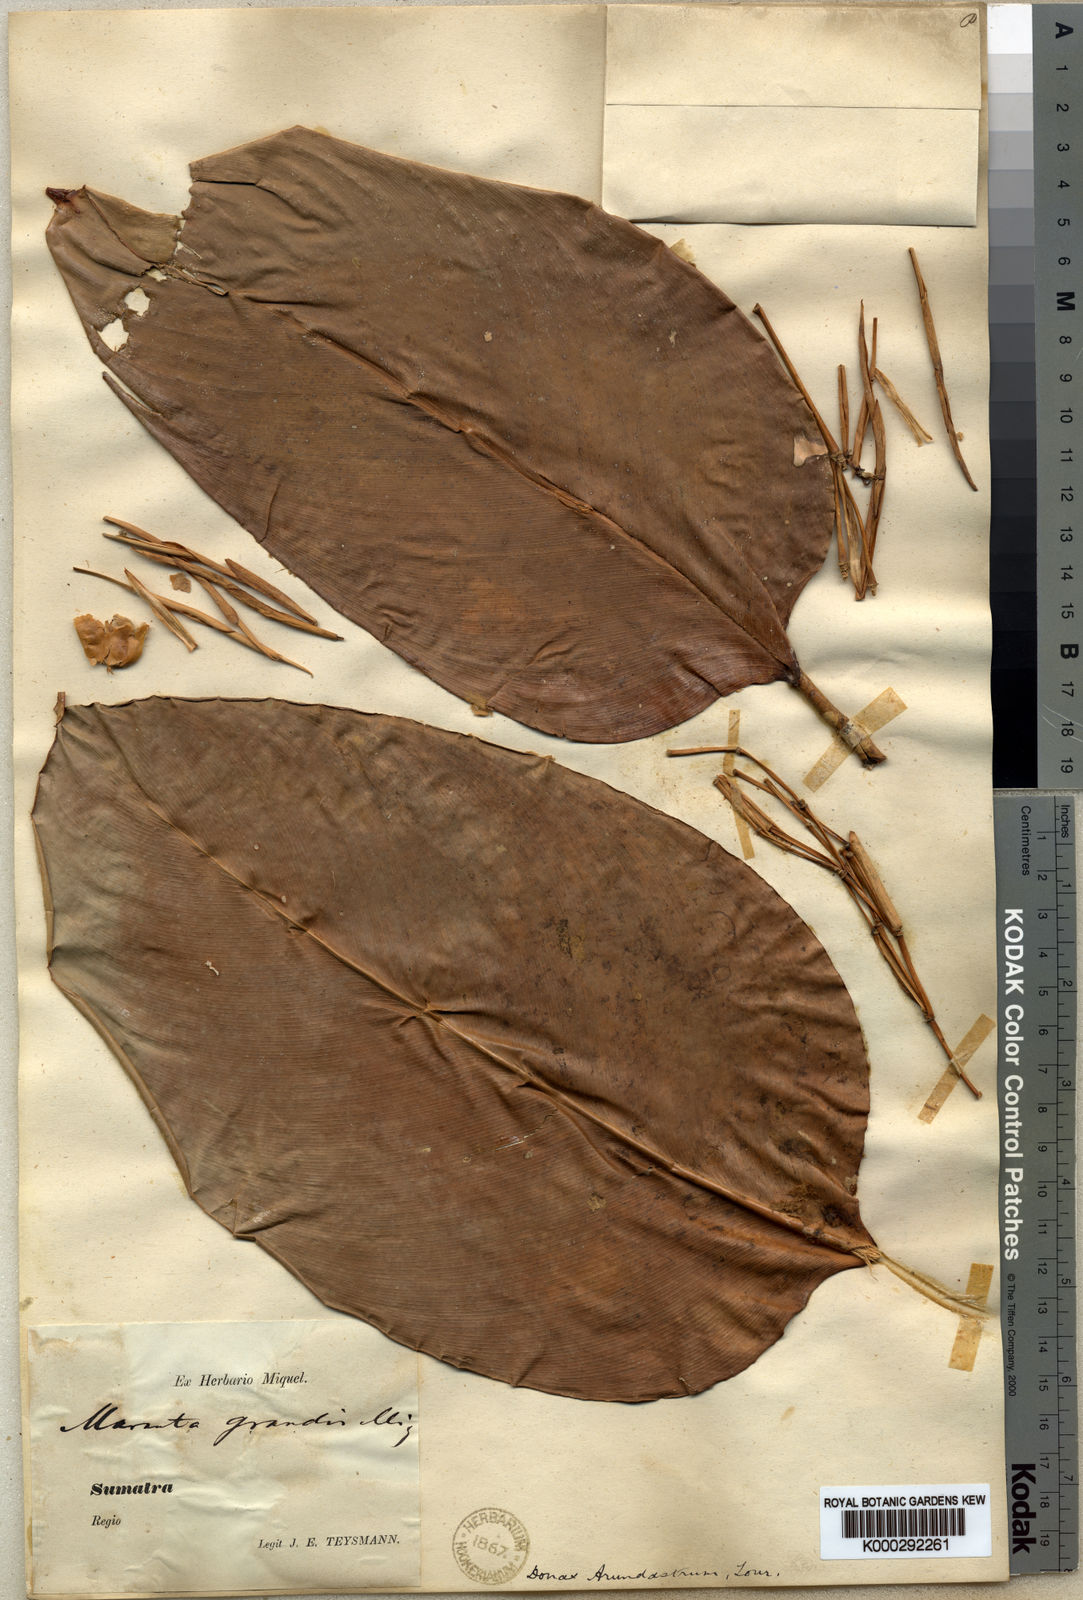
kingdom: Plantae
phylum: Tracheophyta
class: Liliopsida
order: Zingiberales
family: Marantaceae
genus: Donax
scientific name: Donax canniformis
